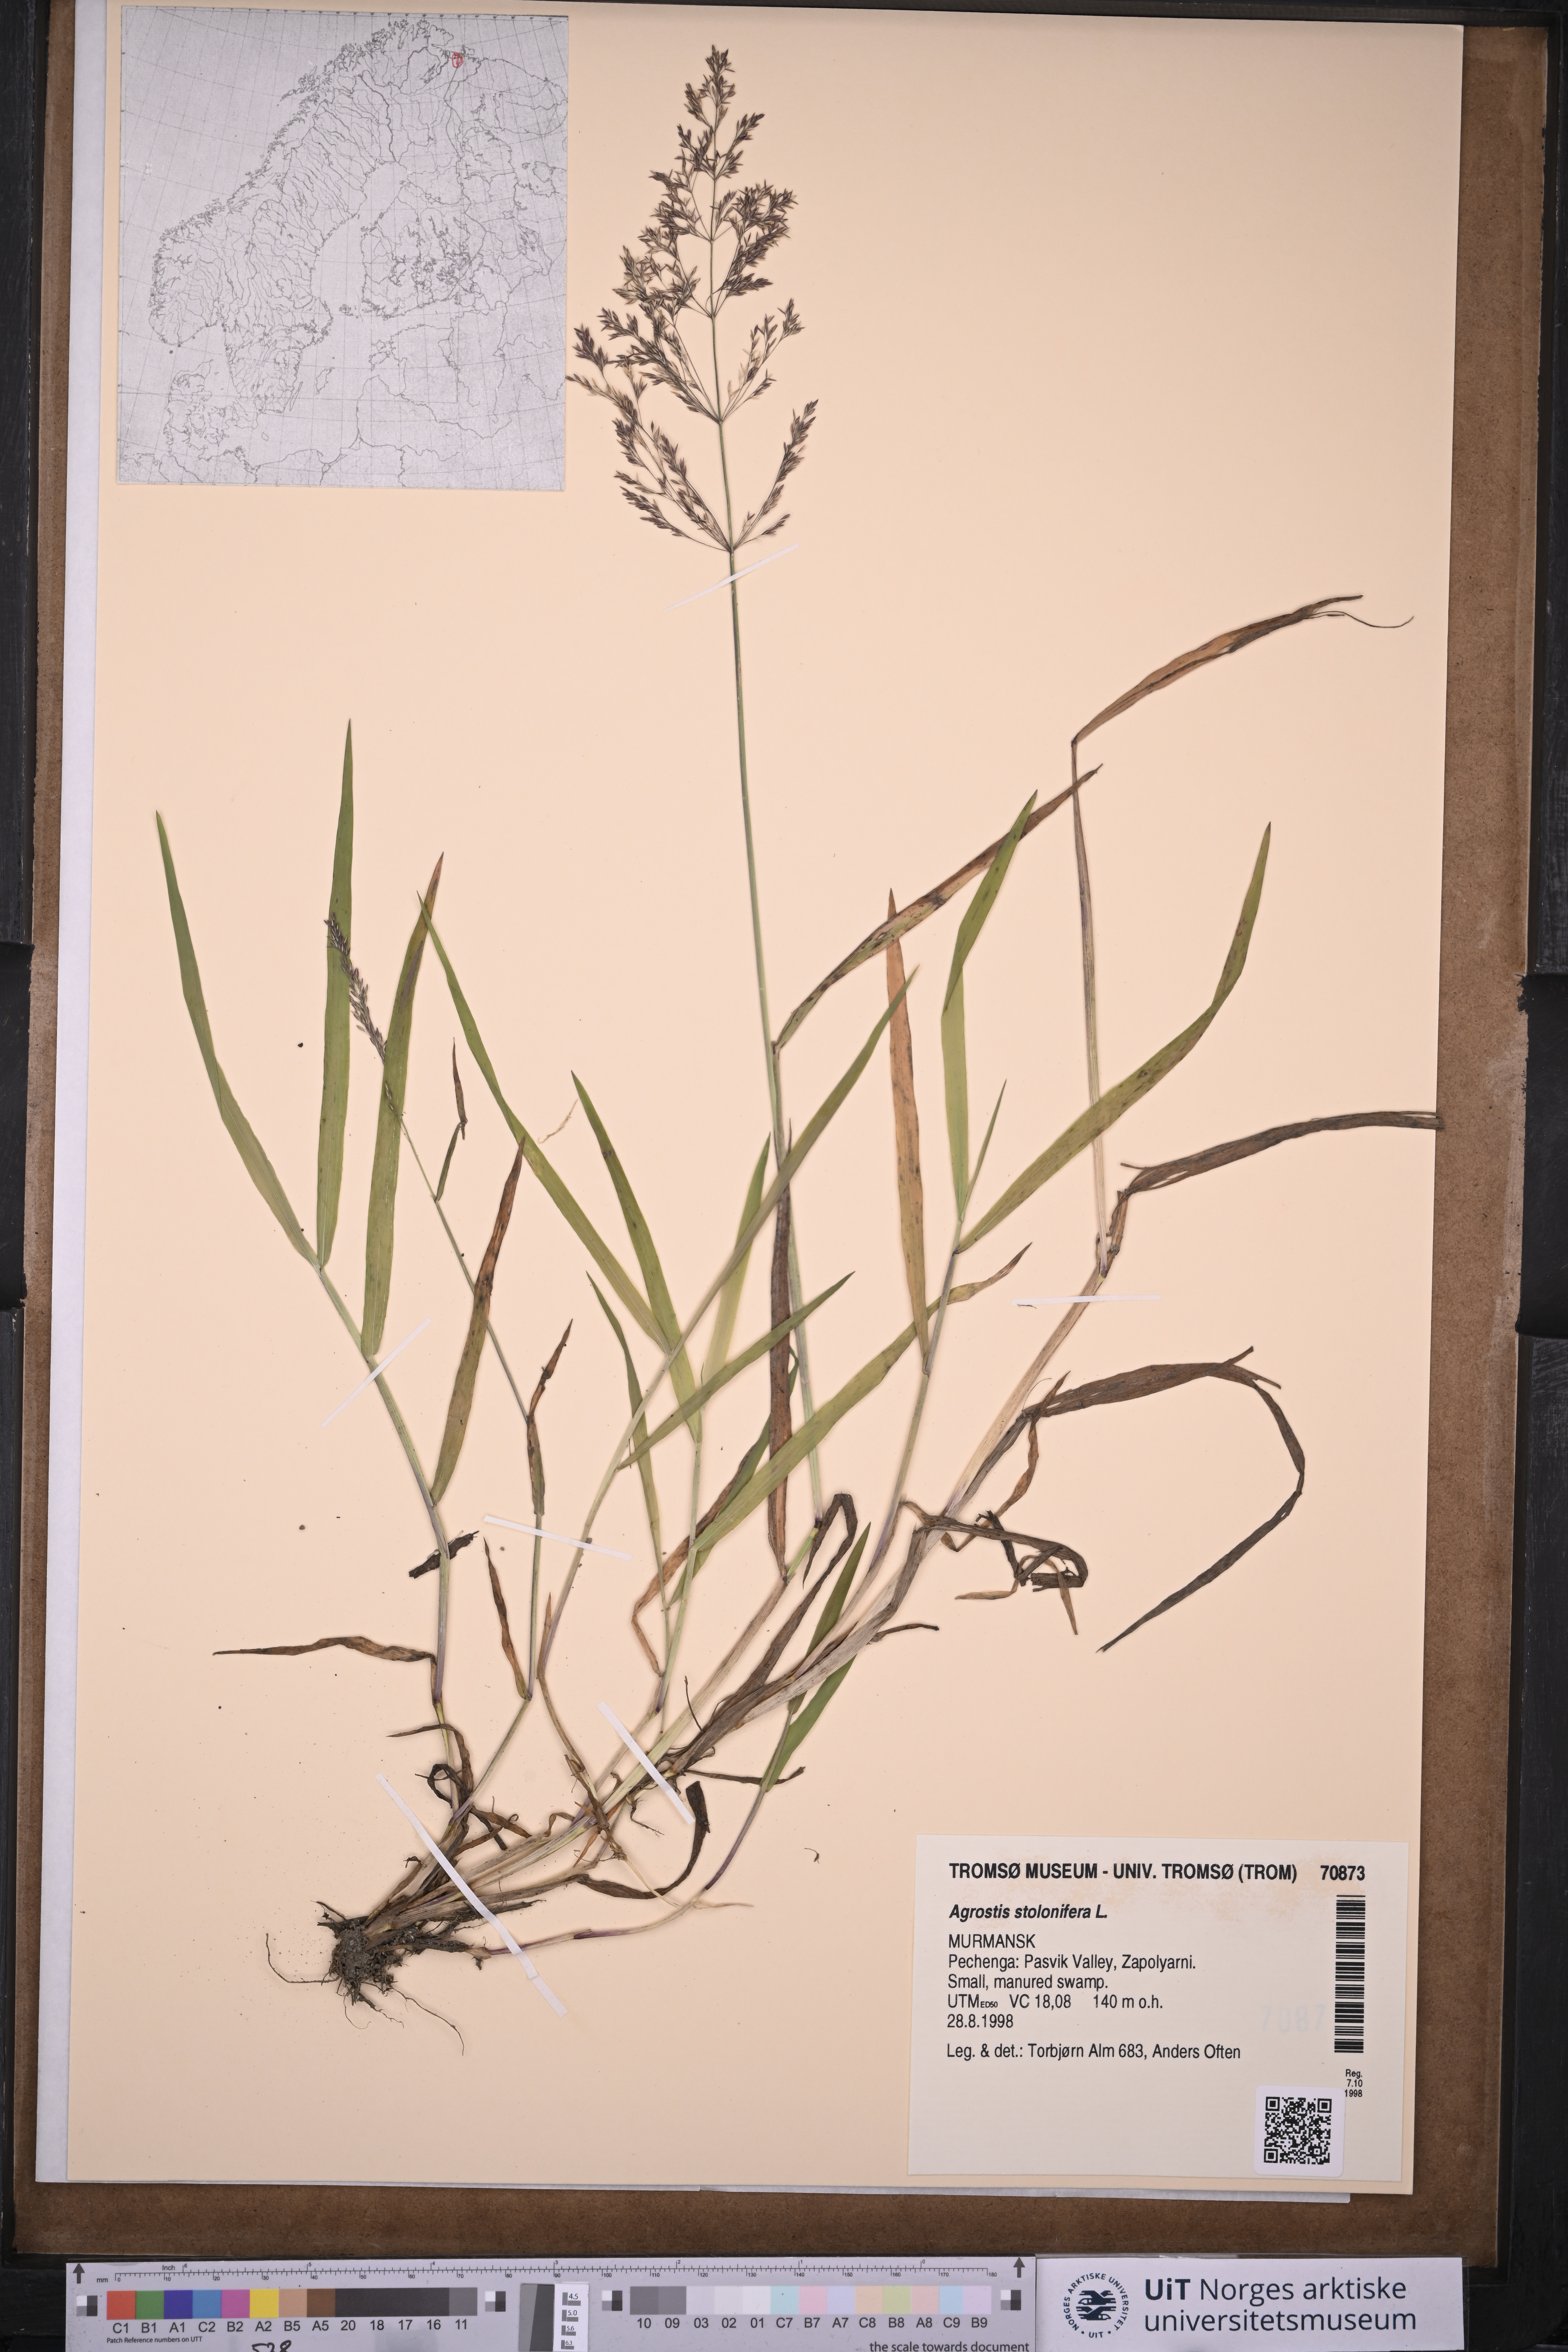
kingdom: Plantae
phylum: Tracheophyta
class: Liliopsida
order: Poales
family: Poaceae
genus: Agrostis
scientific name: Agrostis stolonifera
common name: Creeping bentgrass
